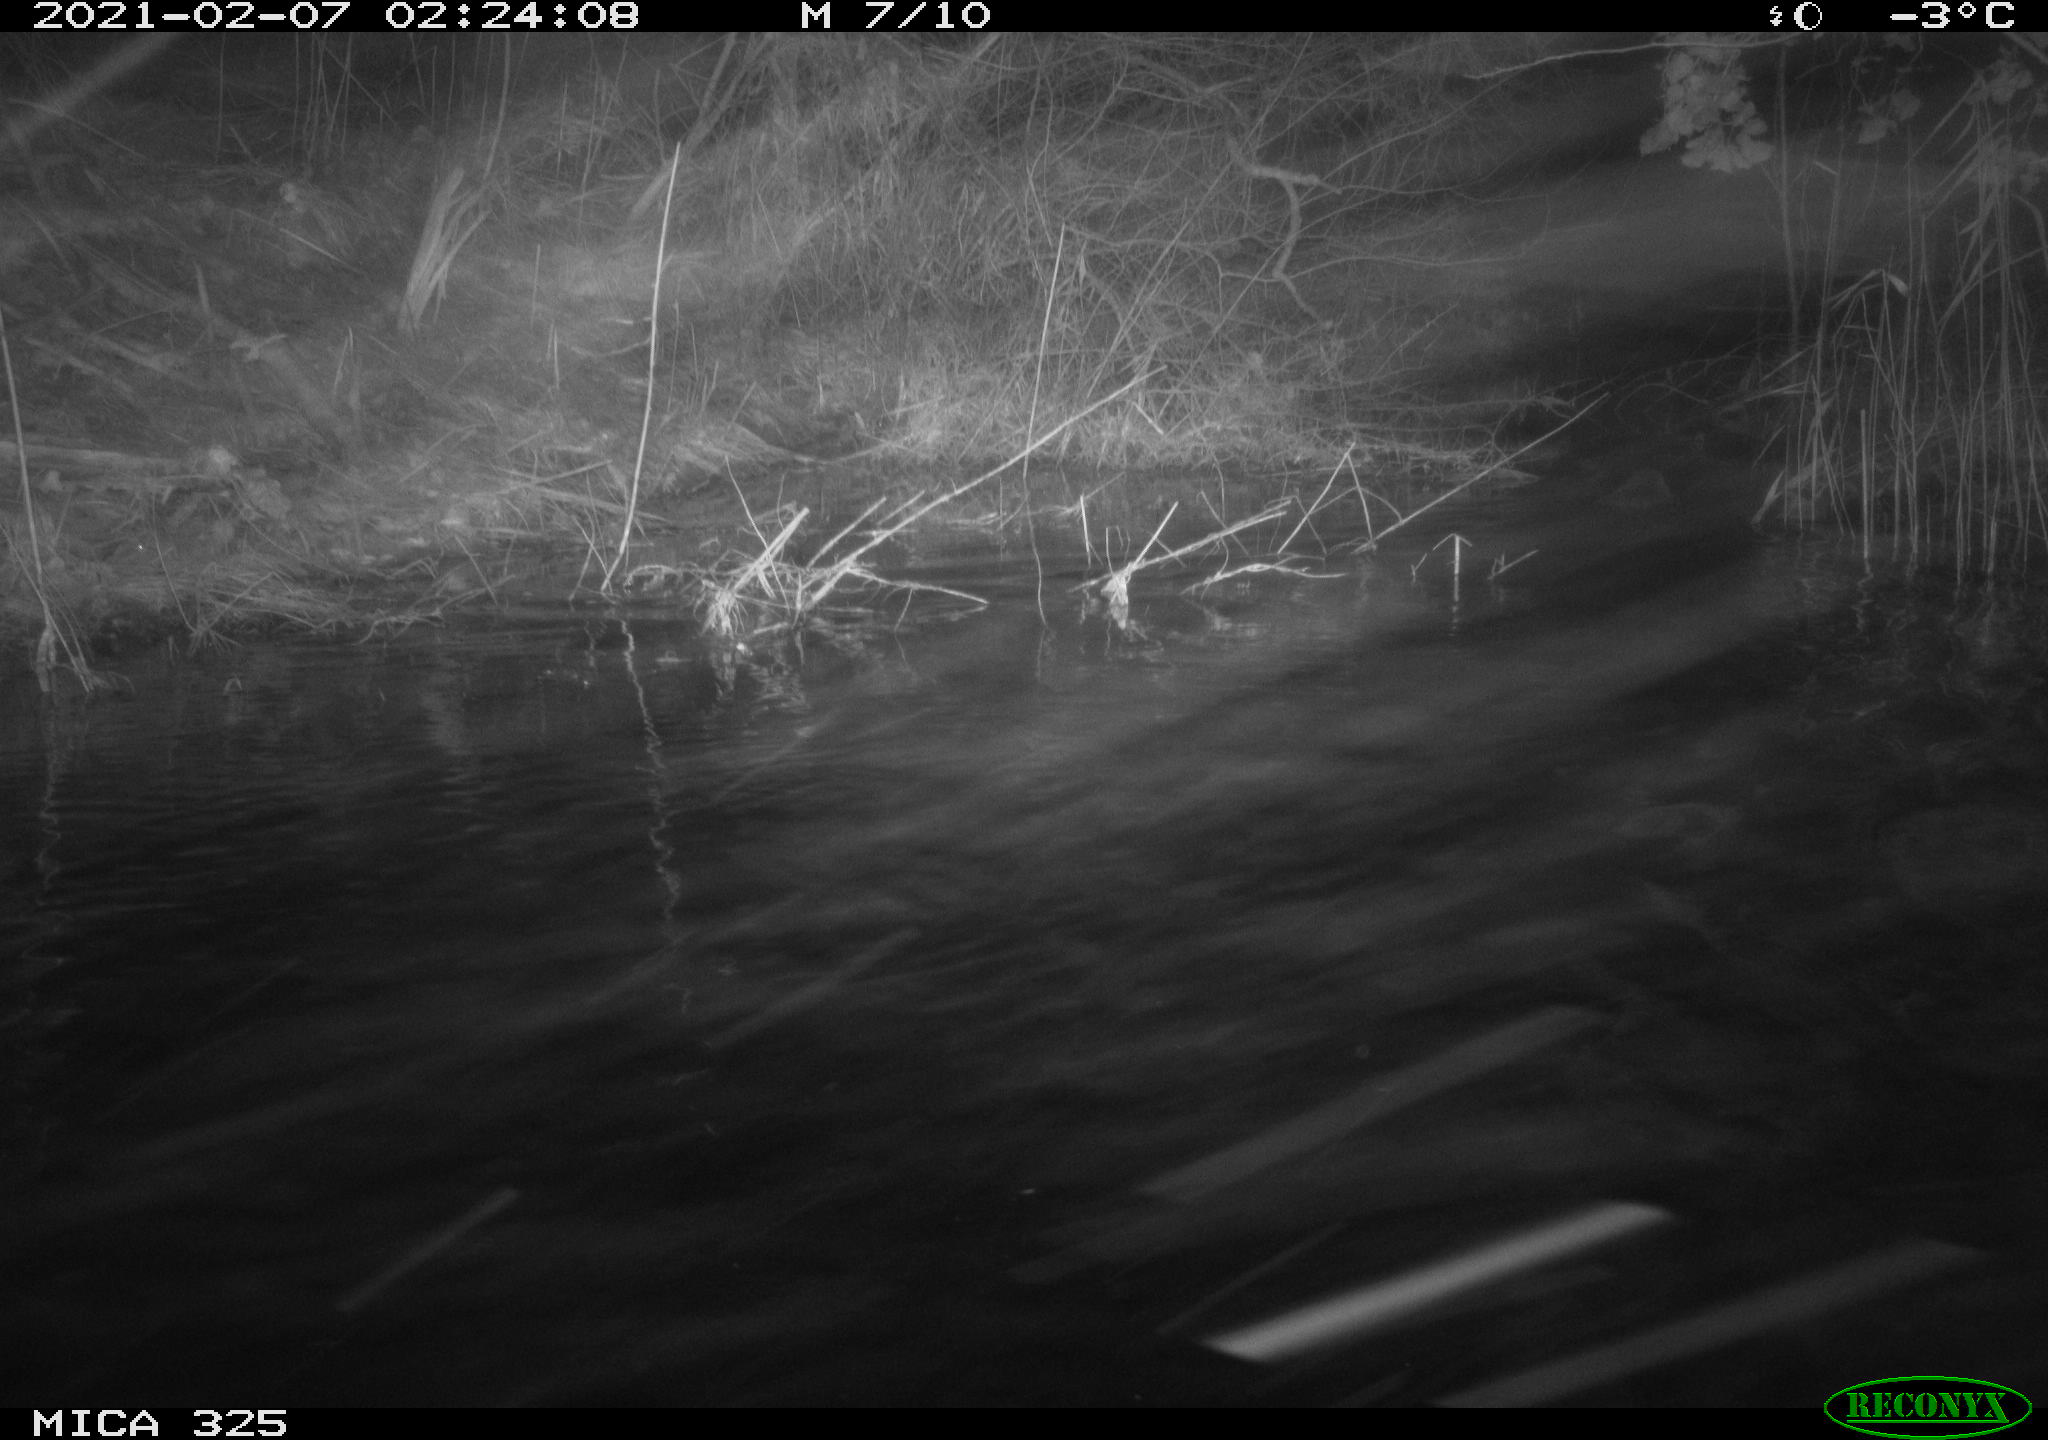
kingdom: Animalia
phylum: Chordata
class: Mammalia
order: Rodentia
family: Myocastoridae
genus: Myocastor
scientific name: Myocastor coypus
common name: Coypu
